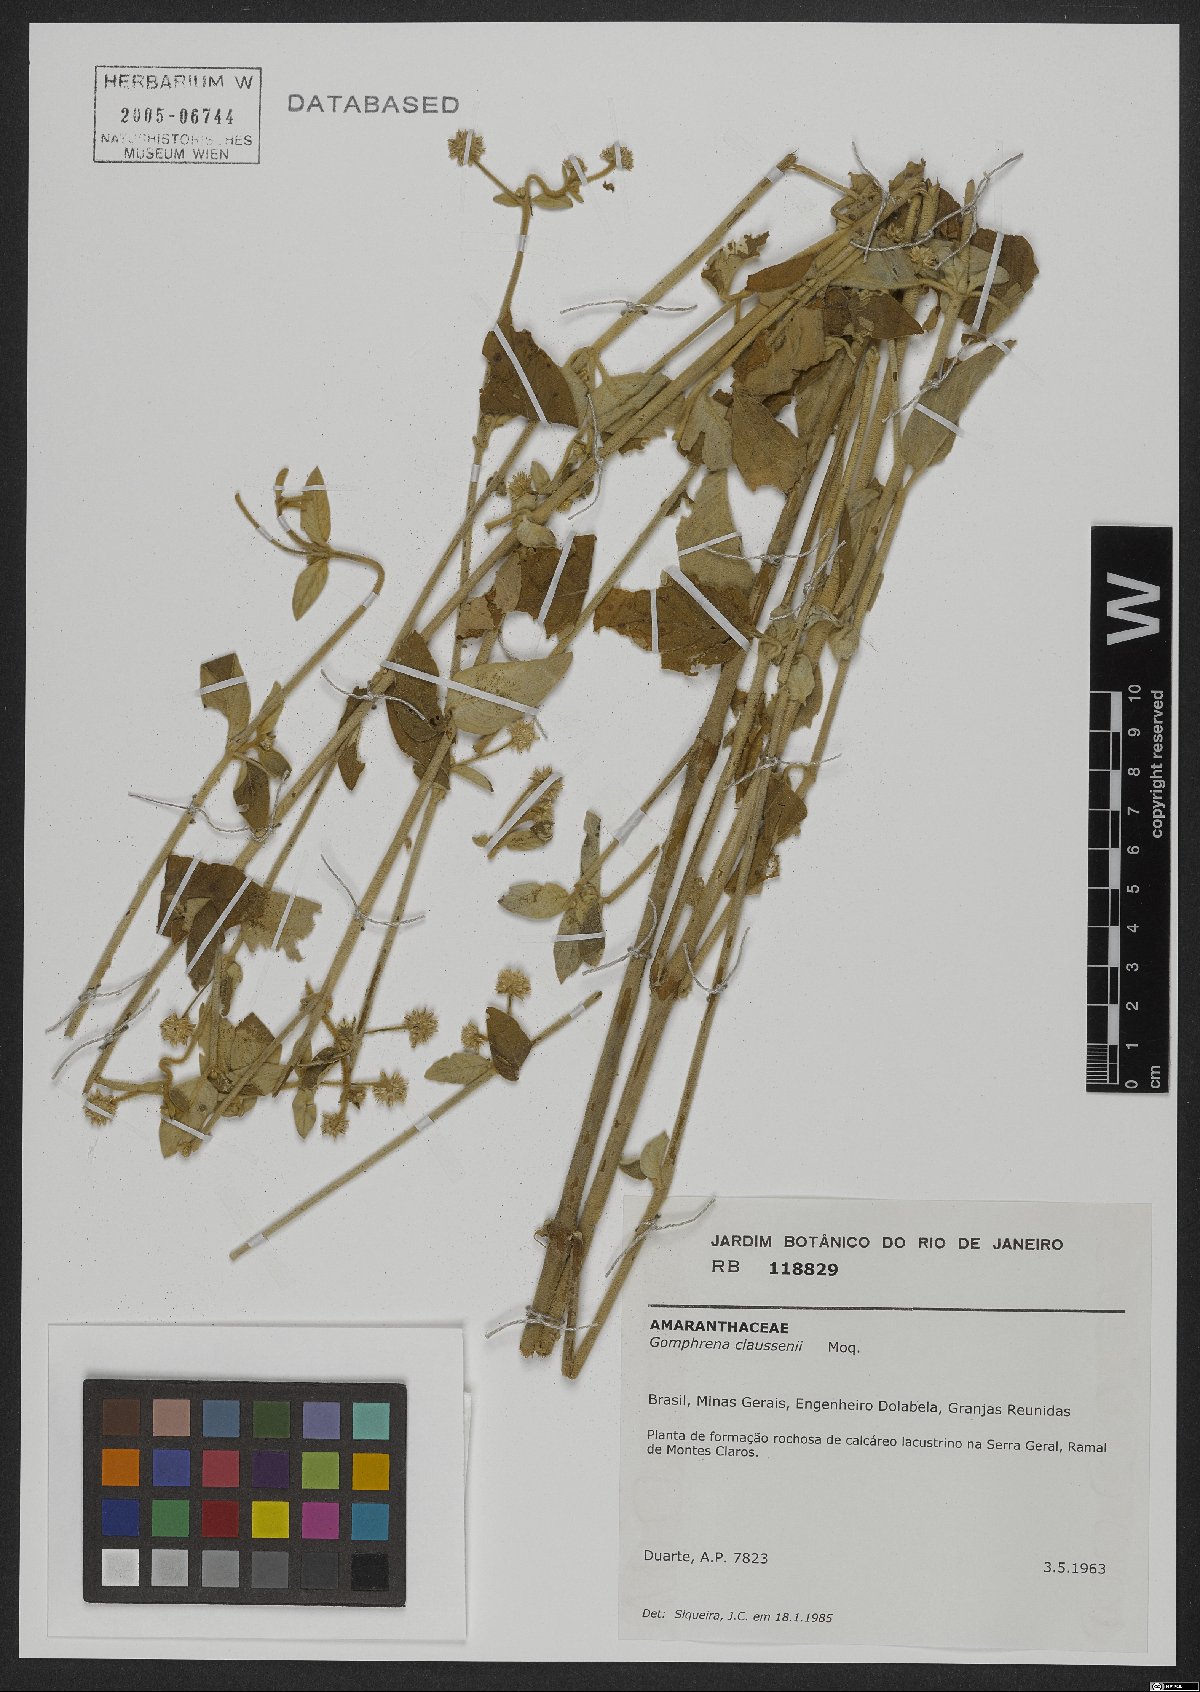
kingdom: Plantae
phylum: Tracheophyta
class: Magnoliopsida
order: Caryophyllales
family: Amaranthaceae
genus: Gomphrena
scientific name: Gomphrena claussenii
